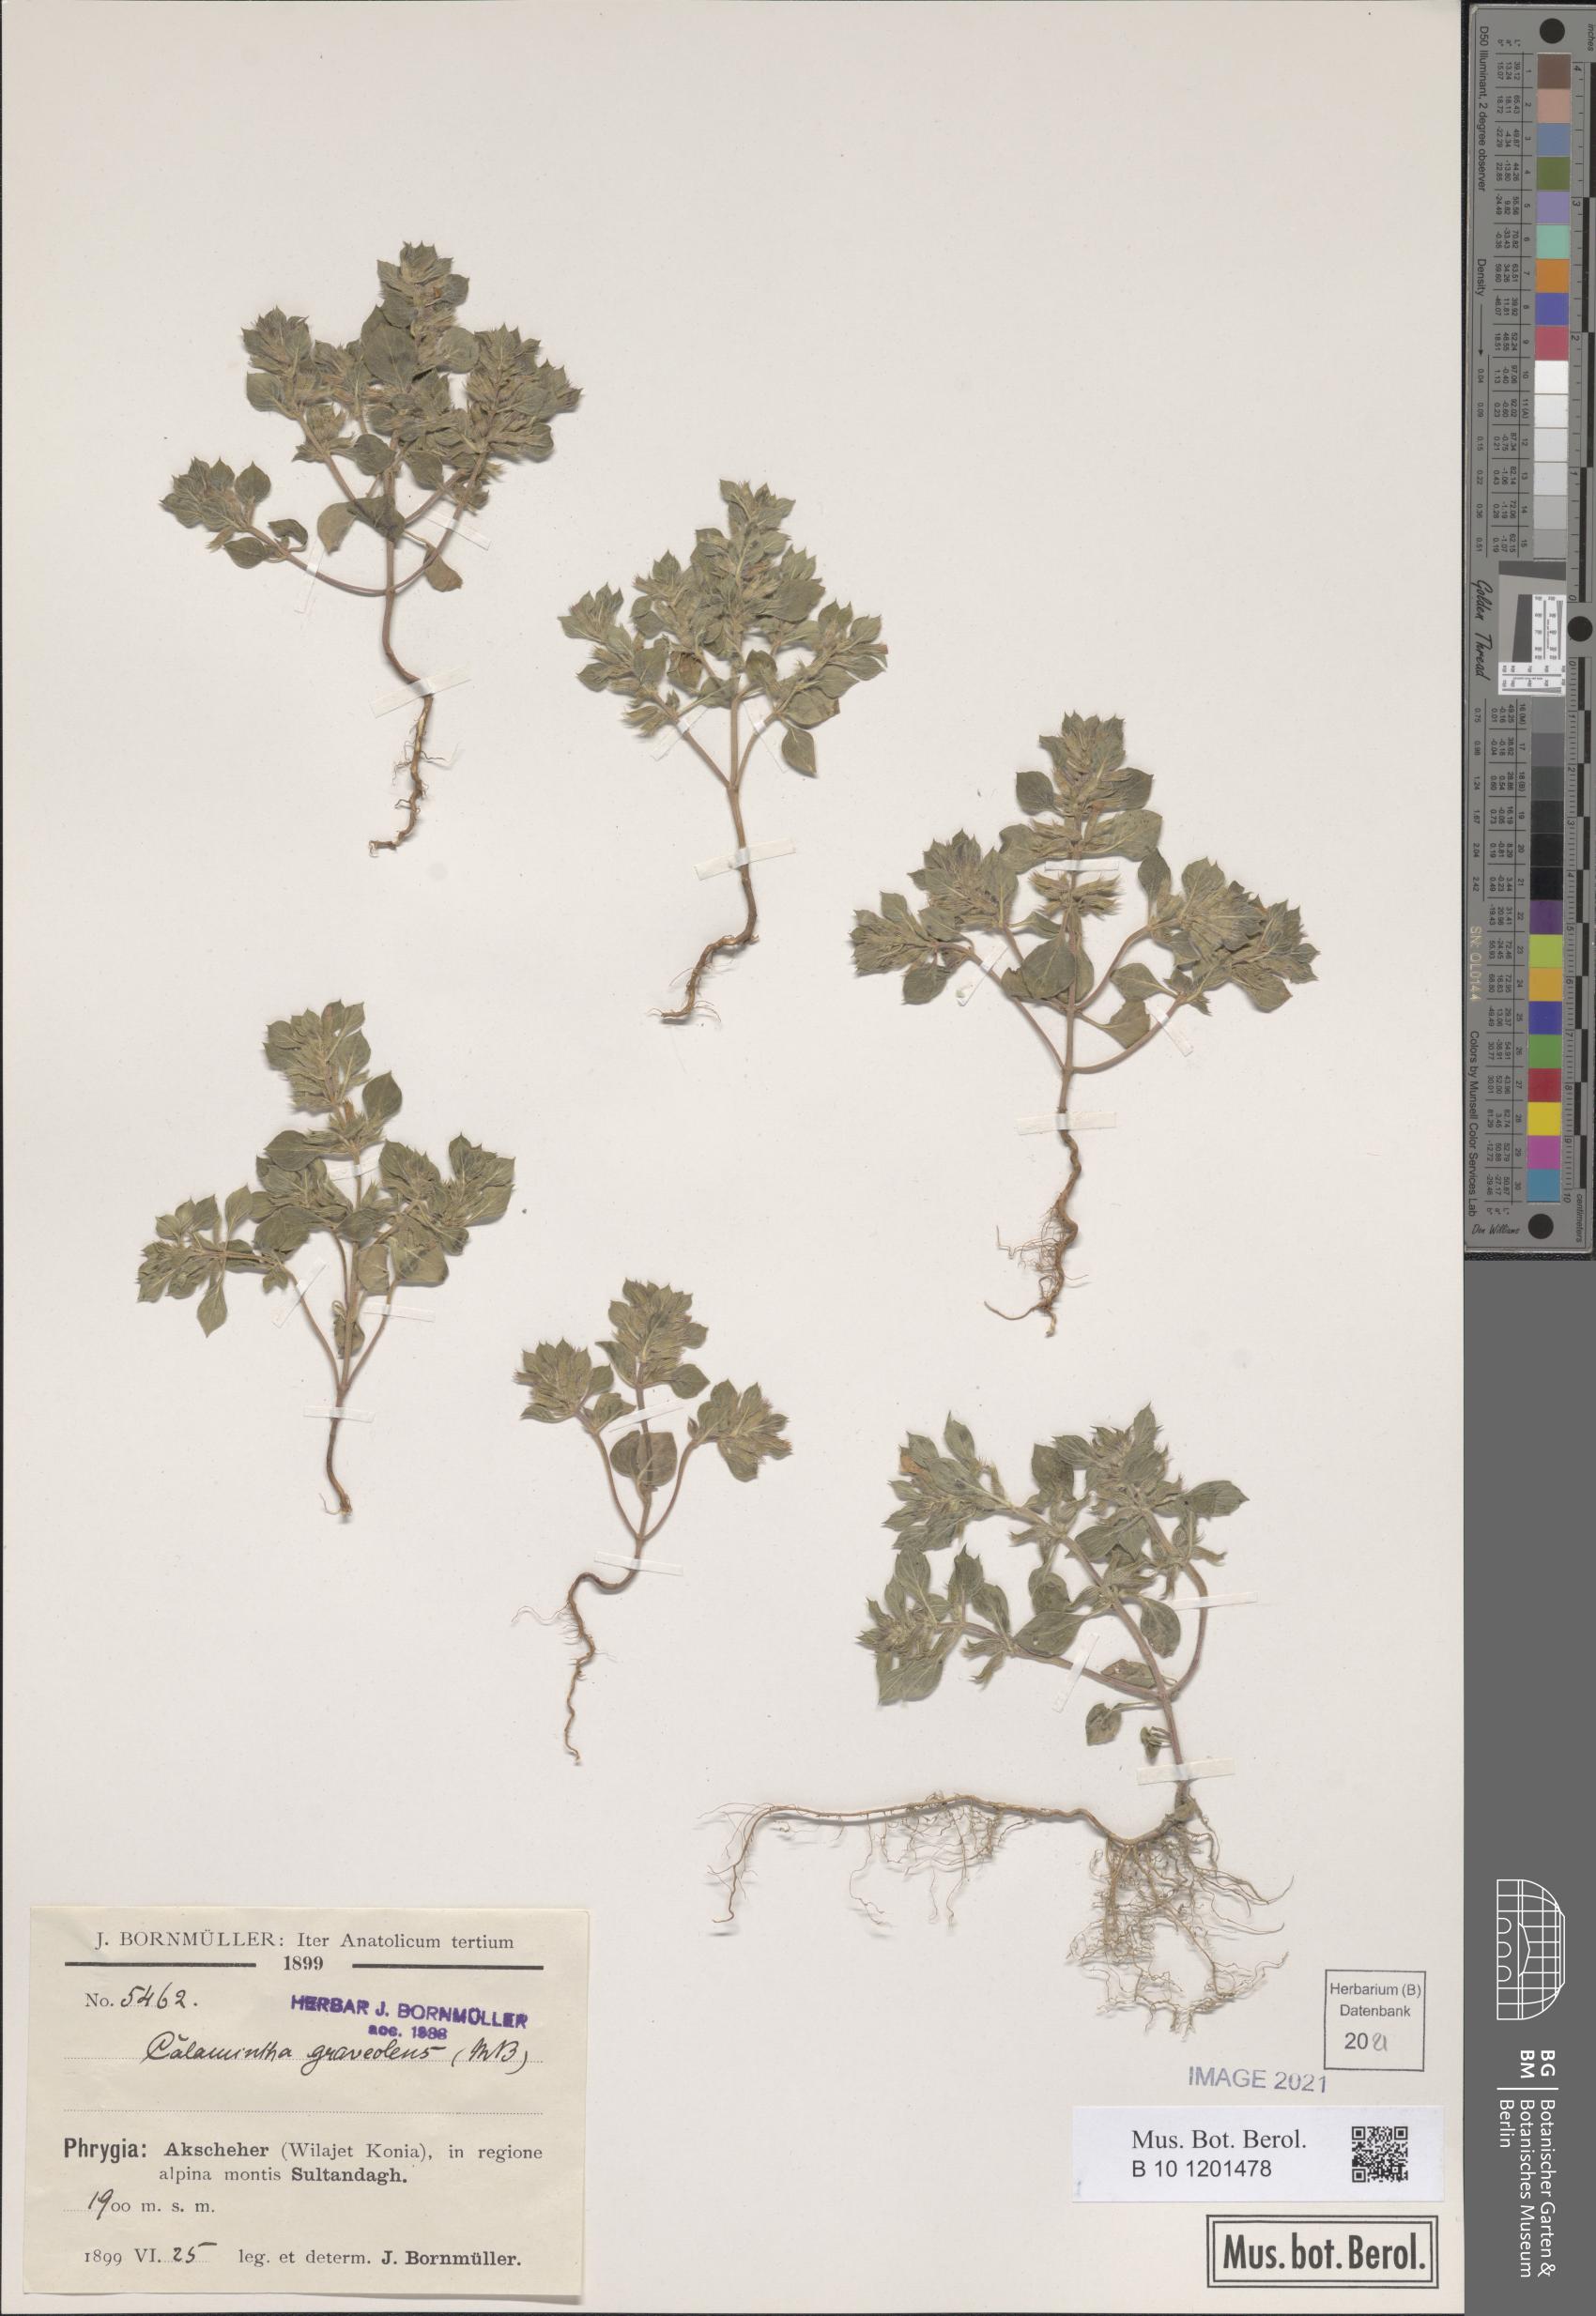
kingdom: Plantae
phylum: Tracheophyta
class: Magnoliopsida
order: Lamiales
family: Lamiaceae
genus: Clinopodium
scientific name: Clinopodium alpinum
